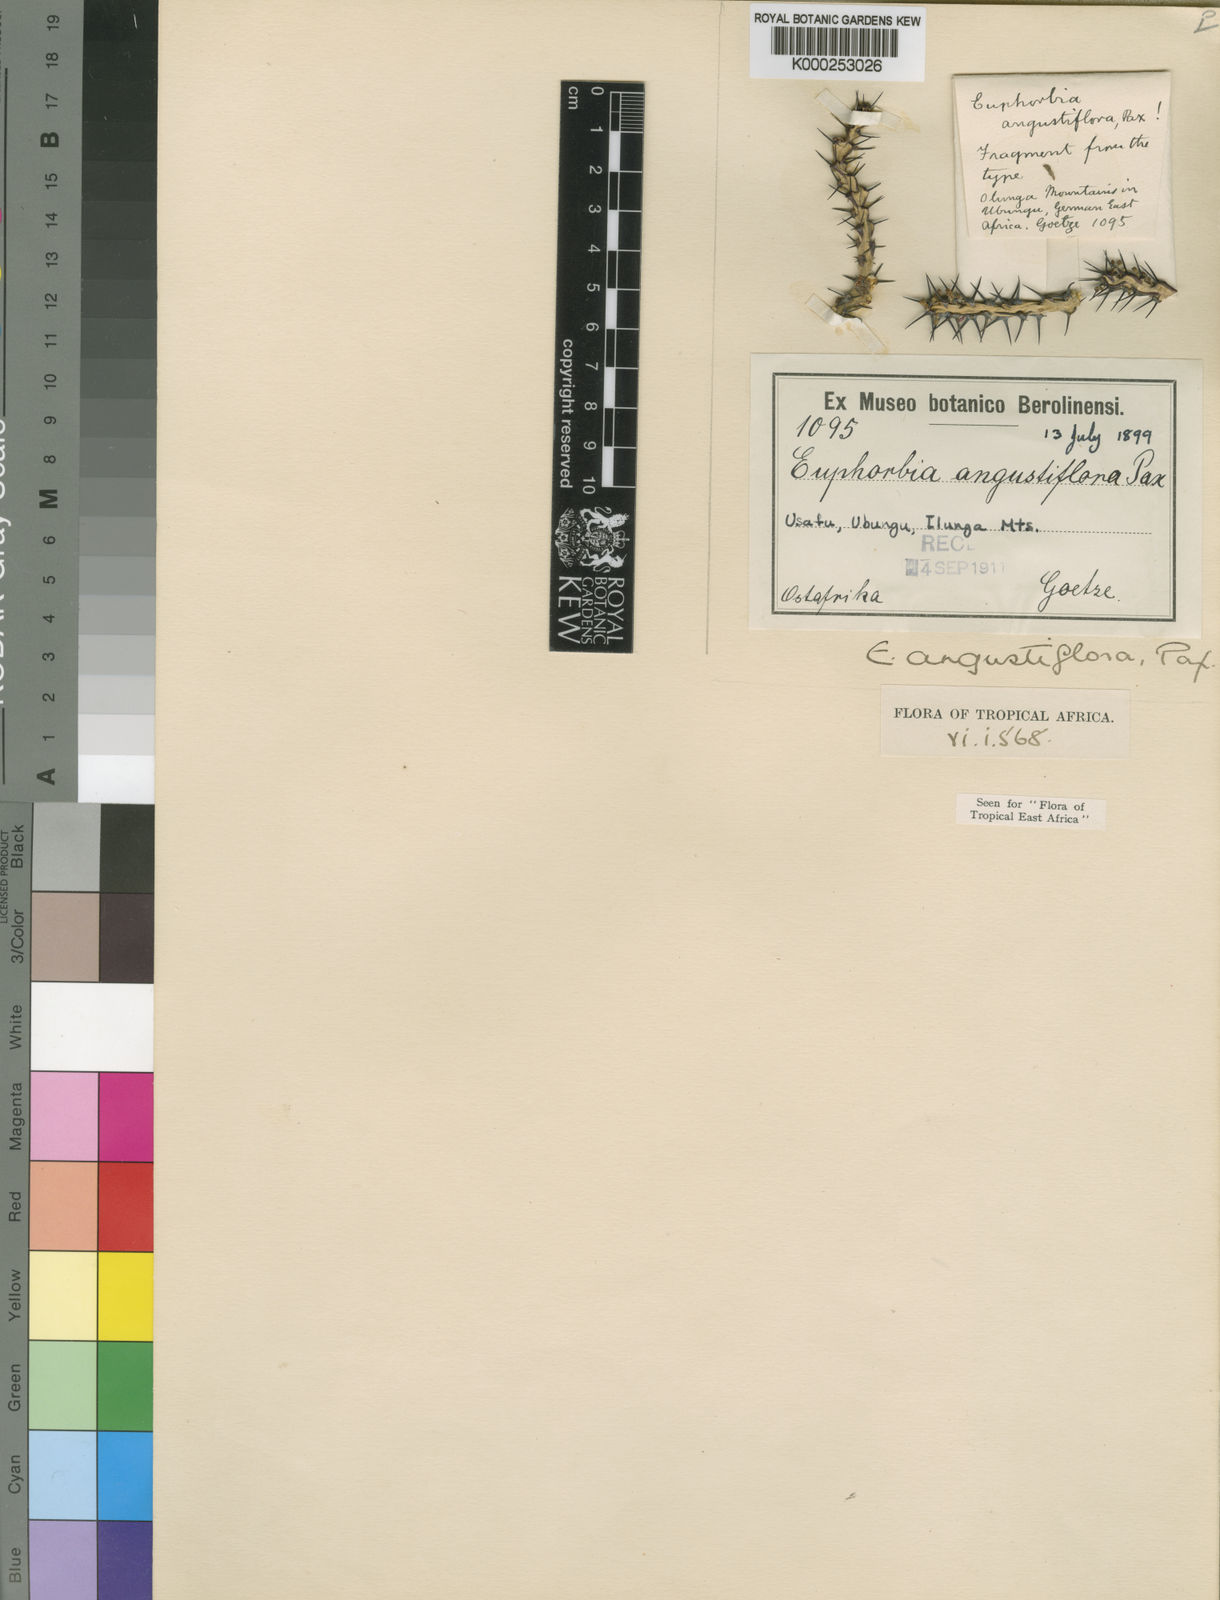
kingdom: Plantae
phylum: Tracheophyta
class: Magnoliopsida
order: Malpighiales
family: Euphorbiaceae
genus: Euphorbia
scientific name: Euphorbia angustiflora
